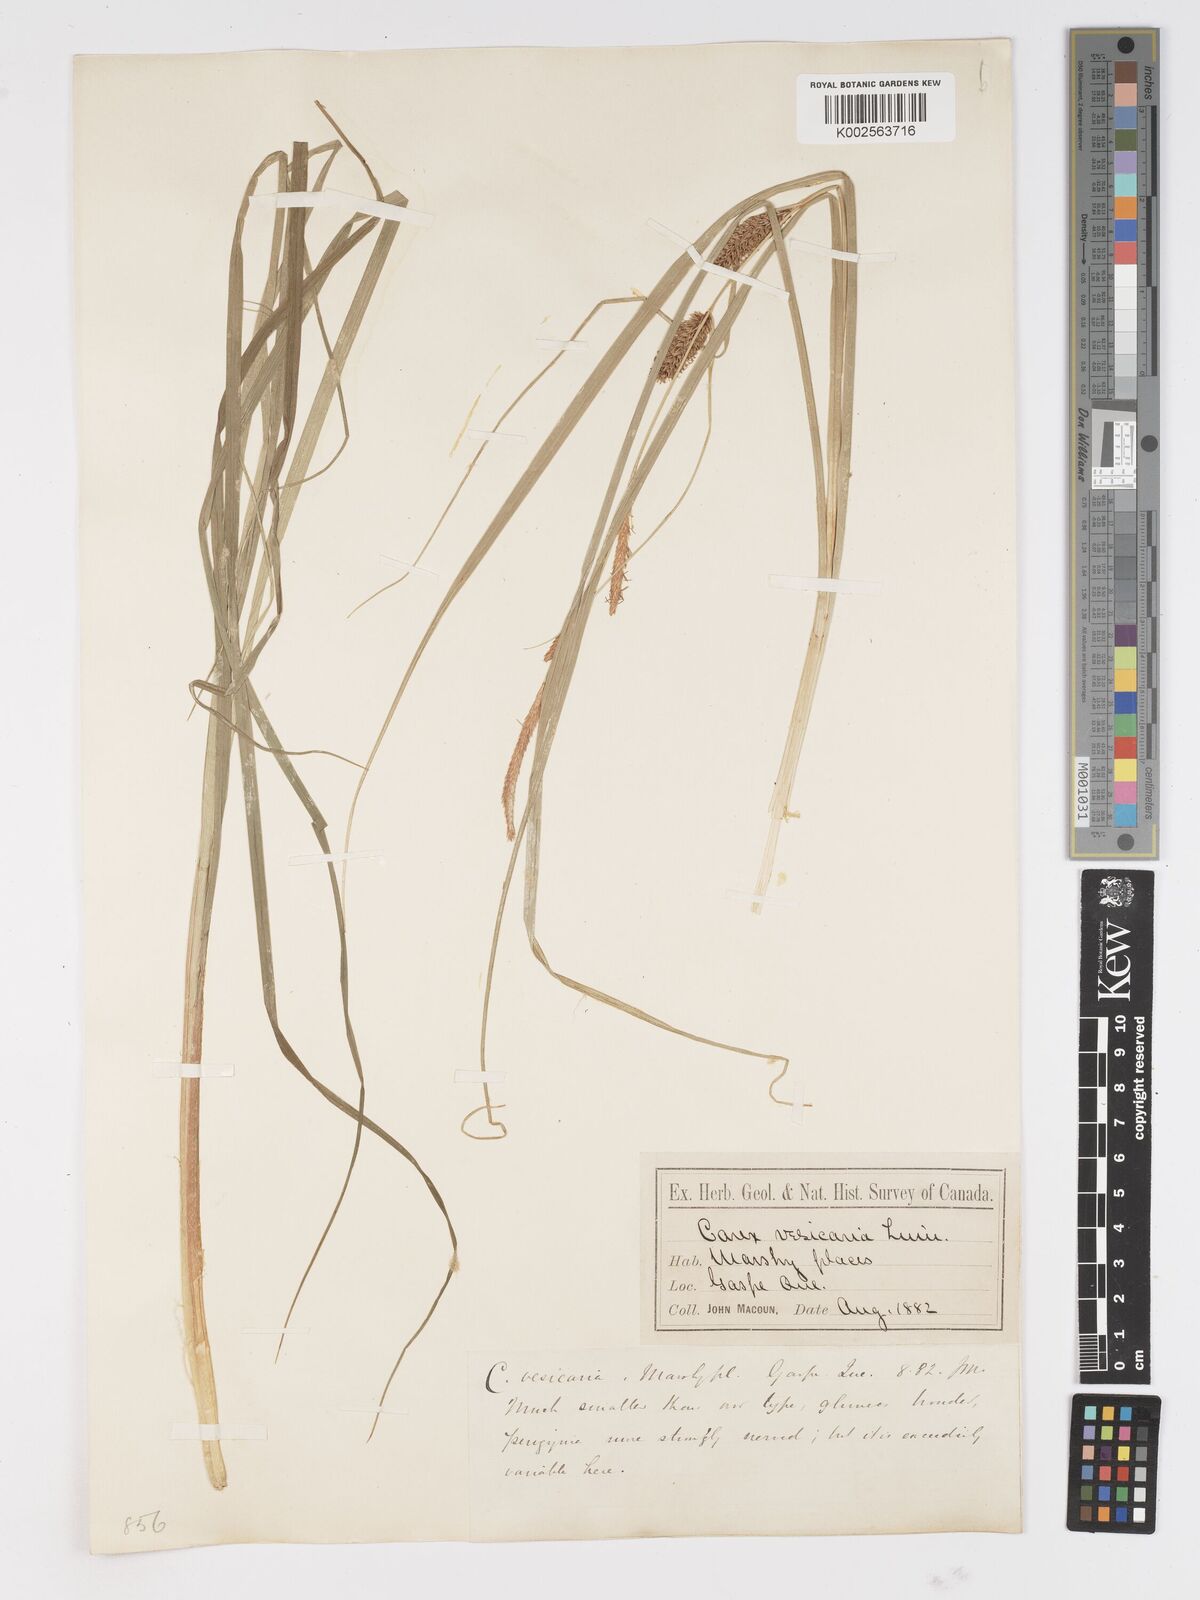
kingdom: Plantae
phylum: Tracheophyta
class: Liliopsida
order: Poales
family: Cyperaceae
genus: Carex
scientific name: Carex vesicaria
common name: Bladder-sedge
